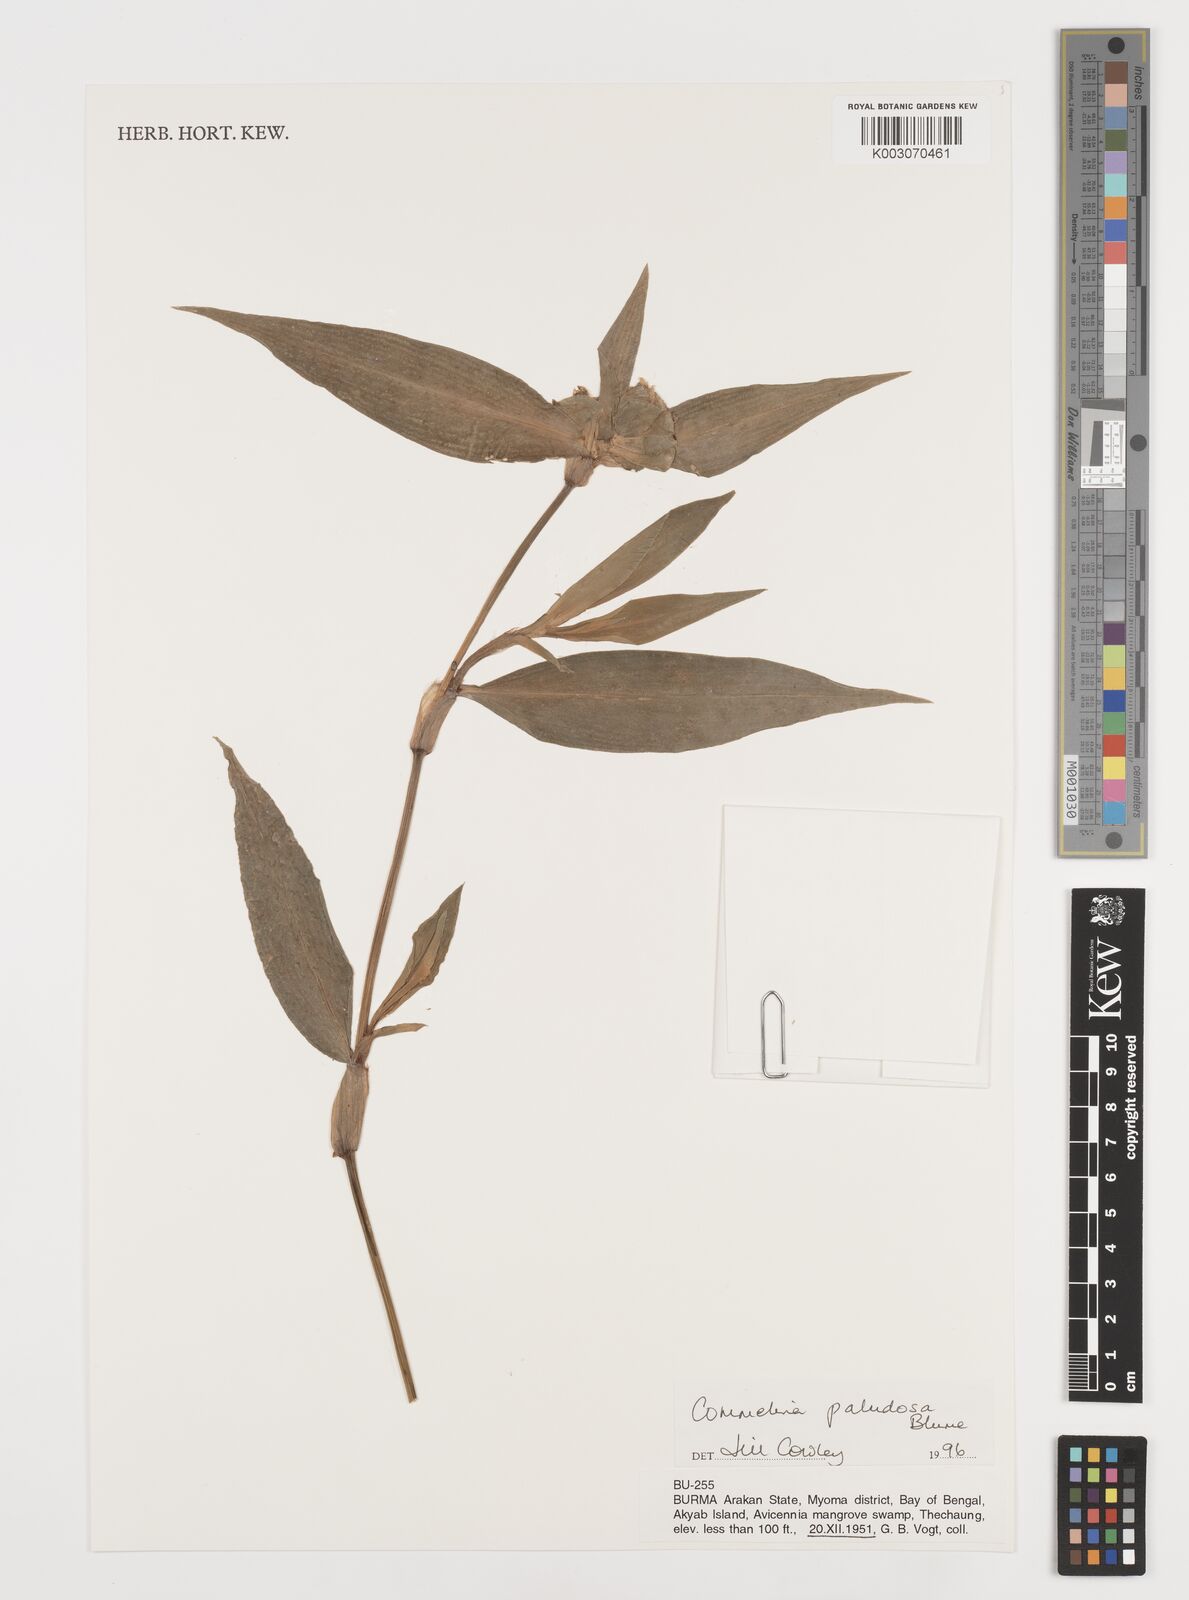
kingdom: Plantae
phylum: Tracheophyta
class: Liliopsida
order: Commelinales
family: Commelinaceae
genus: Commelina
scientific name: Commelina paludosa
